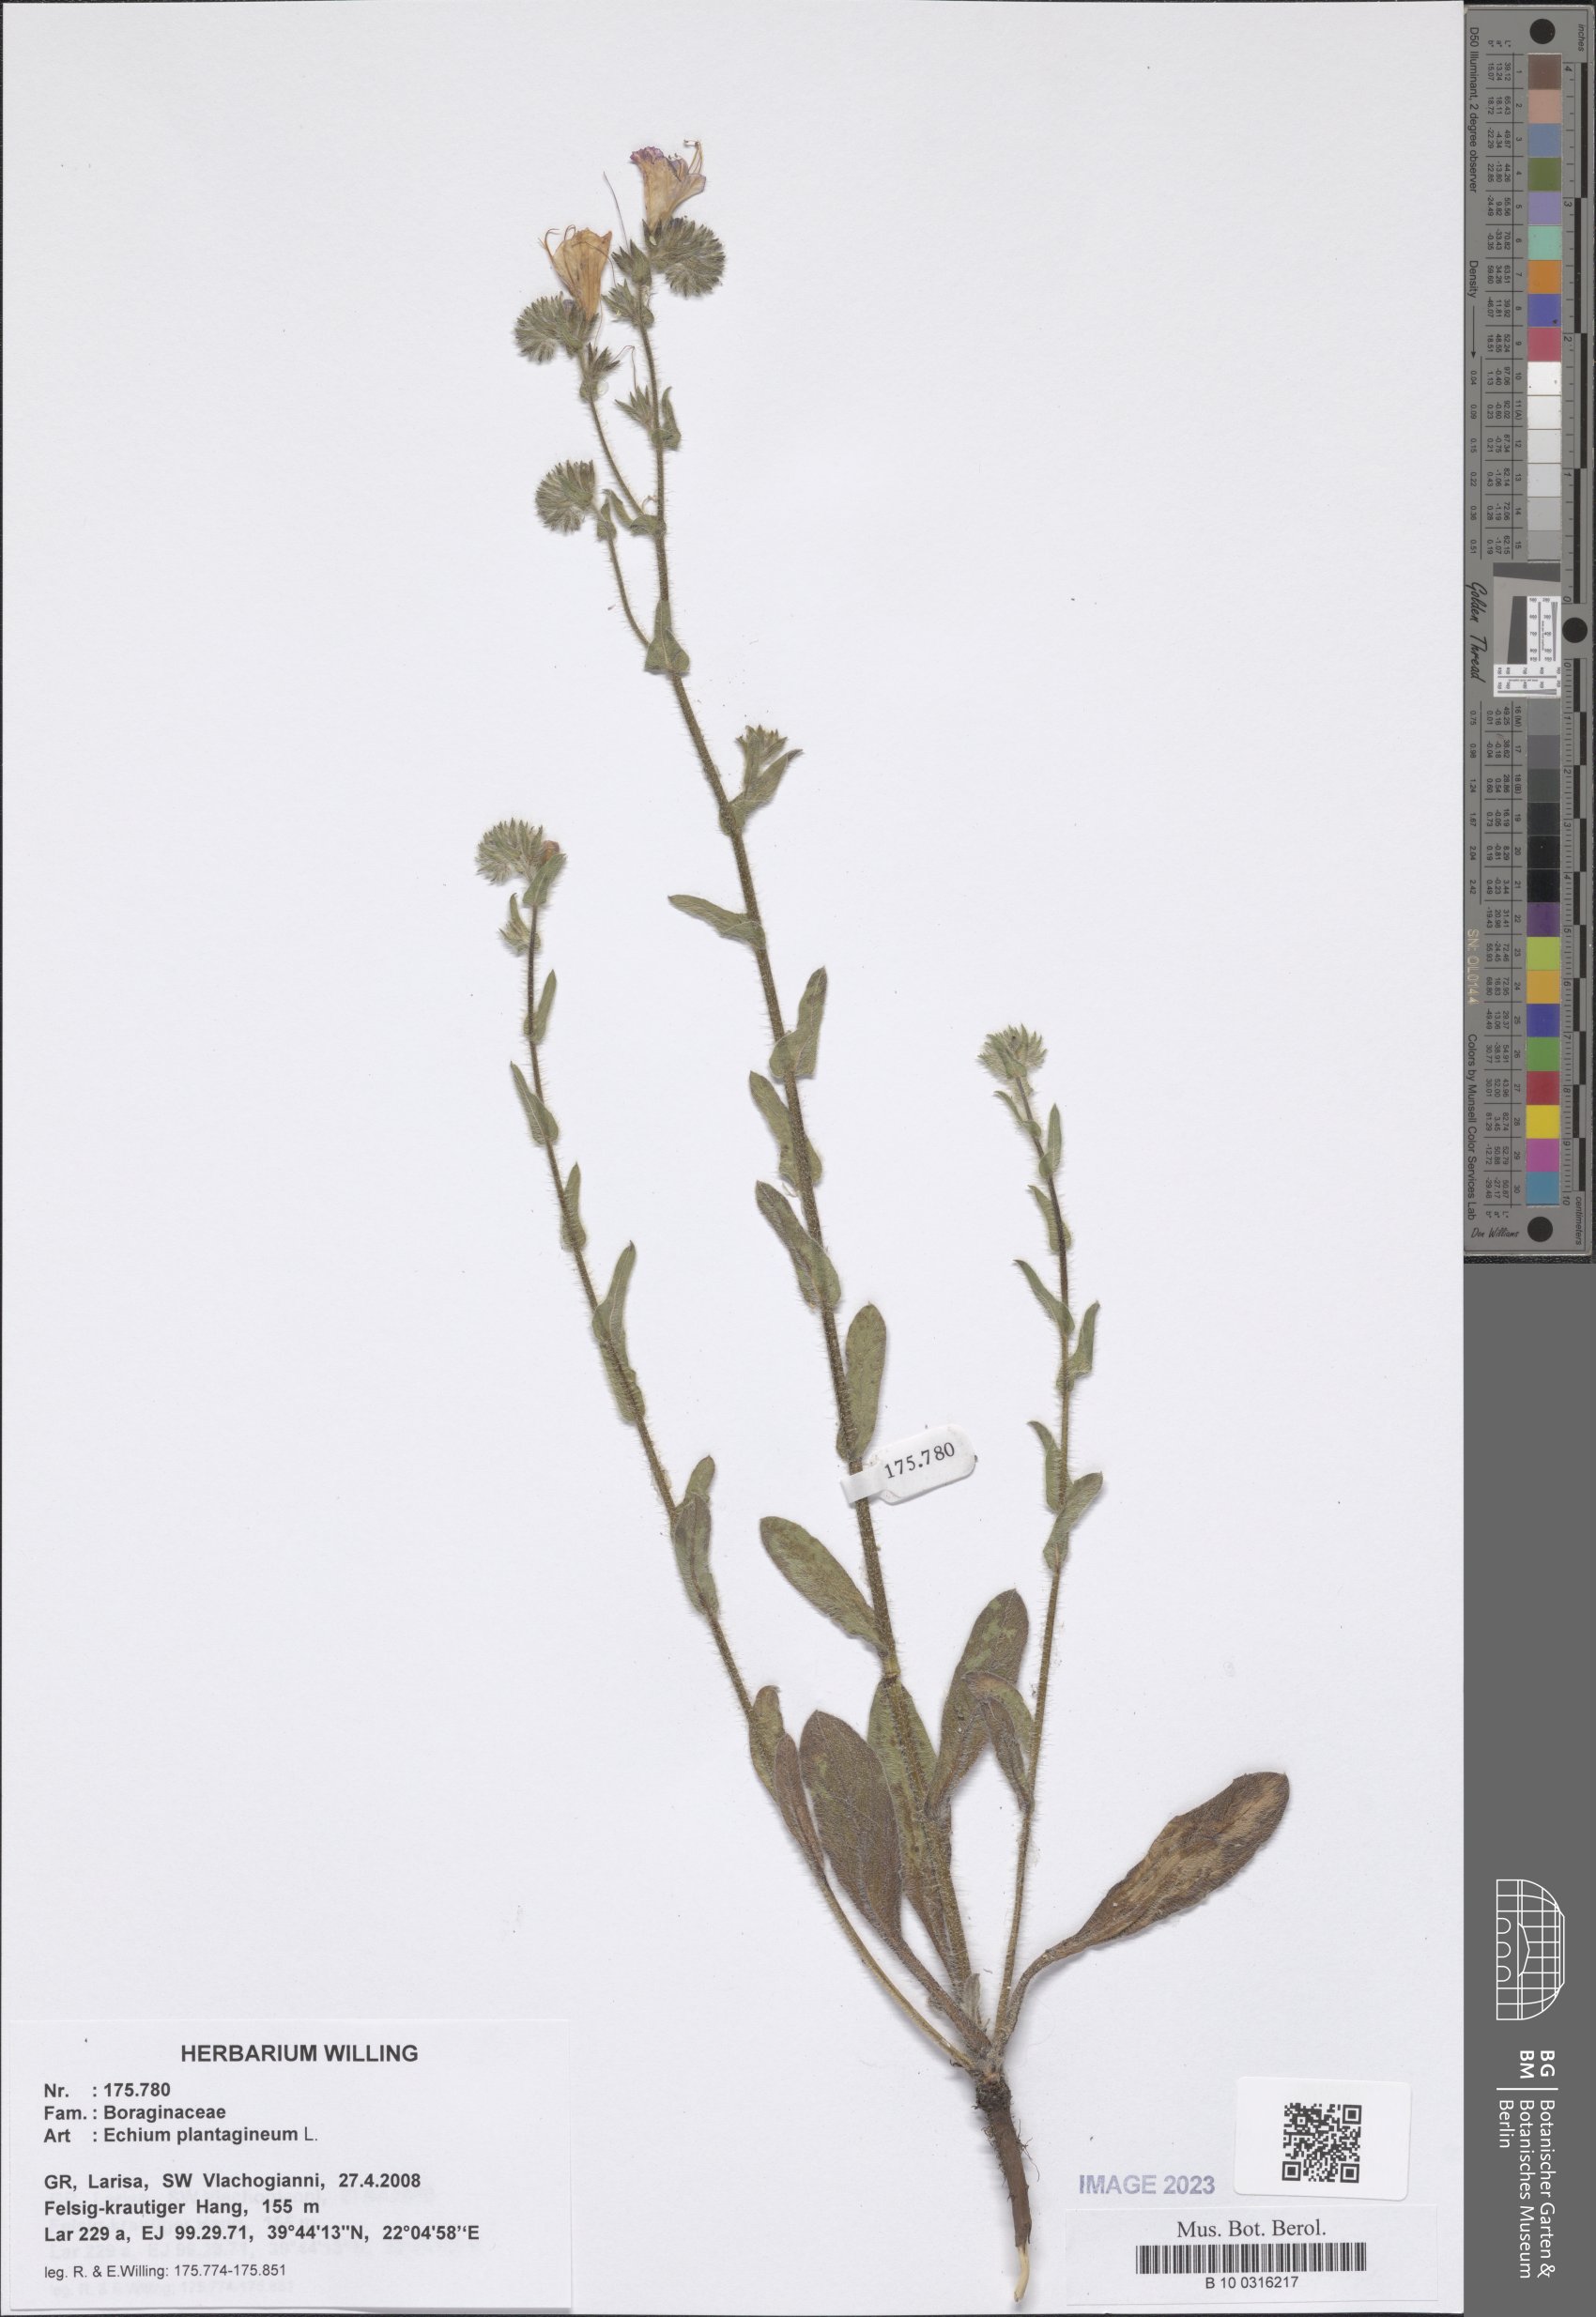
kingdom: Plantae
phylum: Tracheophyta
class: Magnoliopsida
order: Boraginales
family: Boraginaceae
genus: Echium
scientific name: Echium plantagineum
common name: Purple viper's-bugloss
